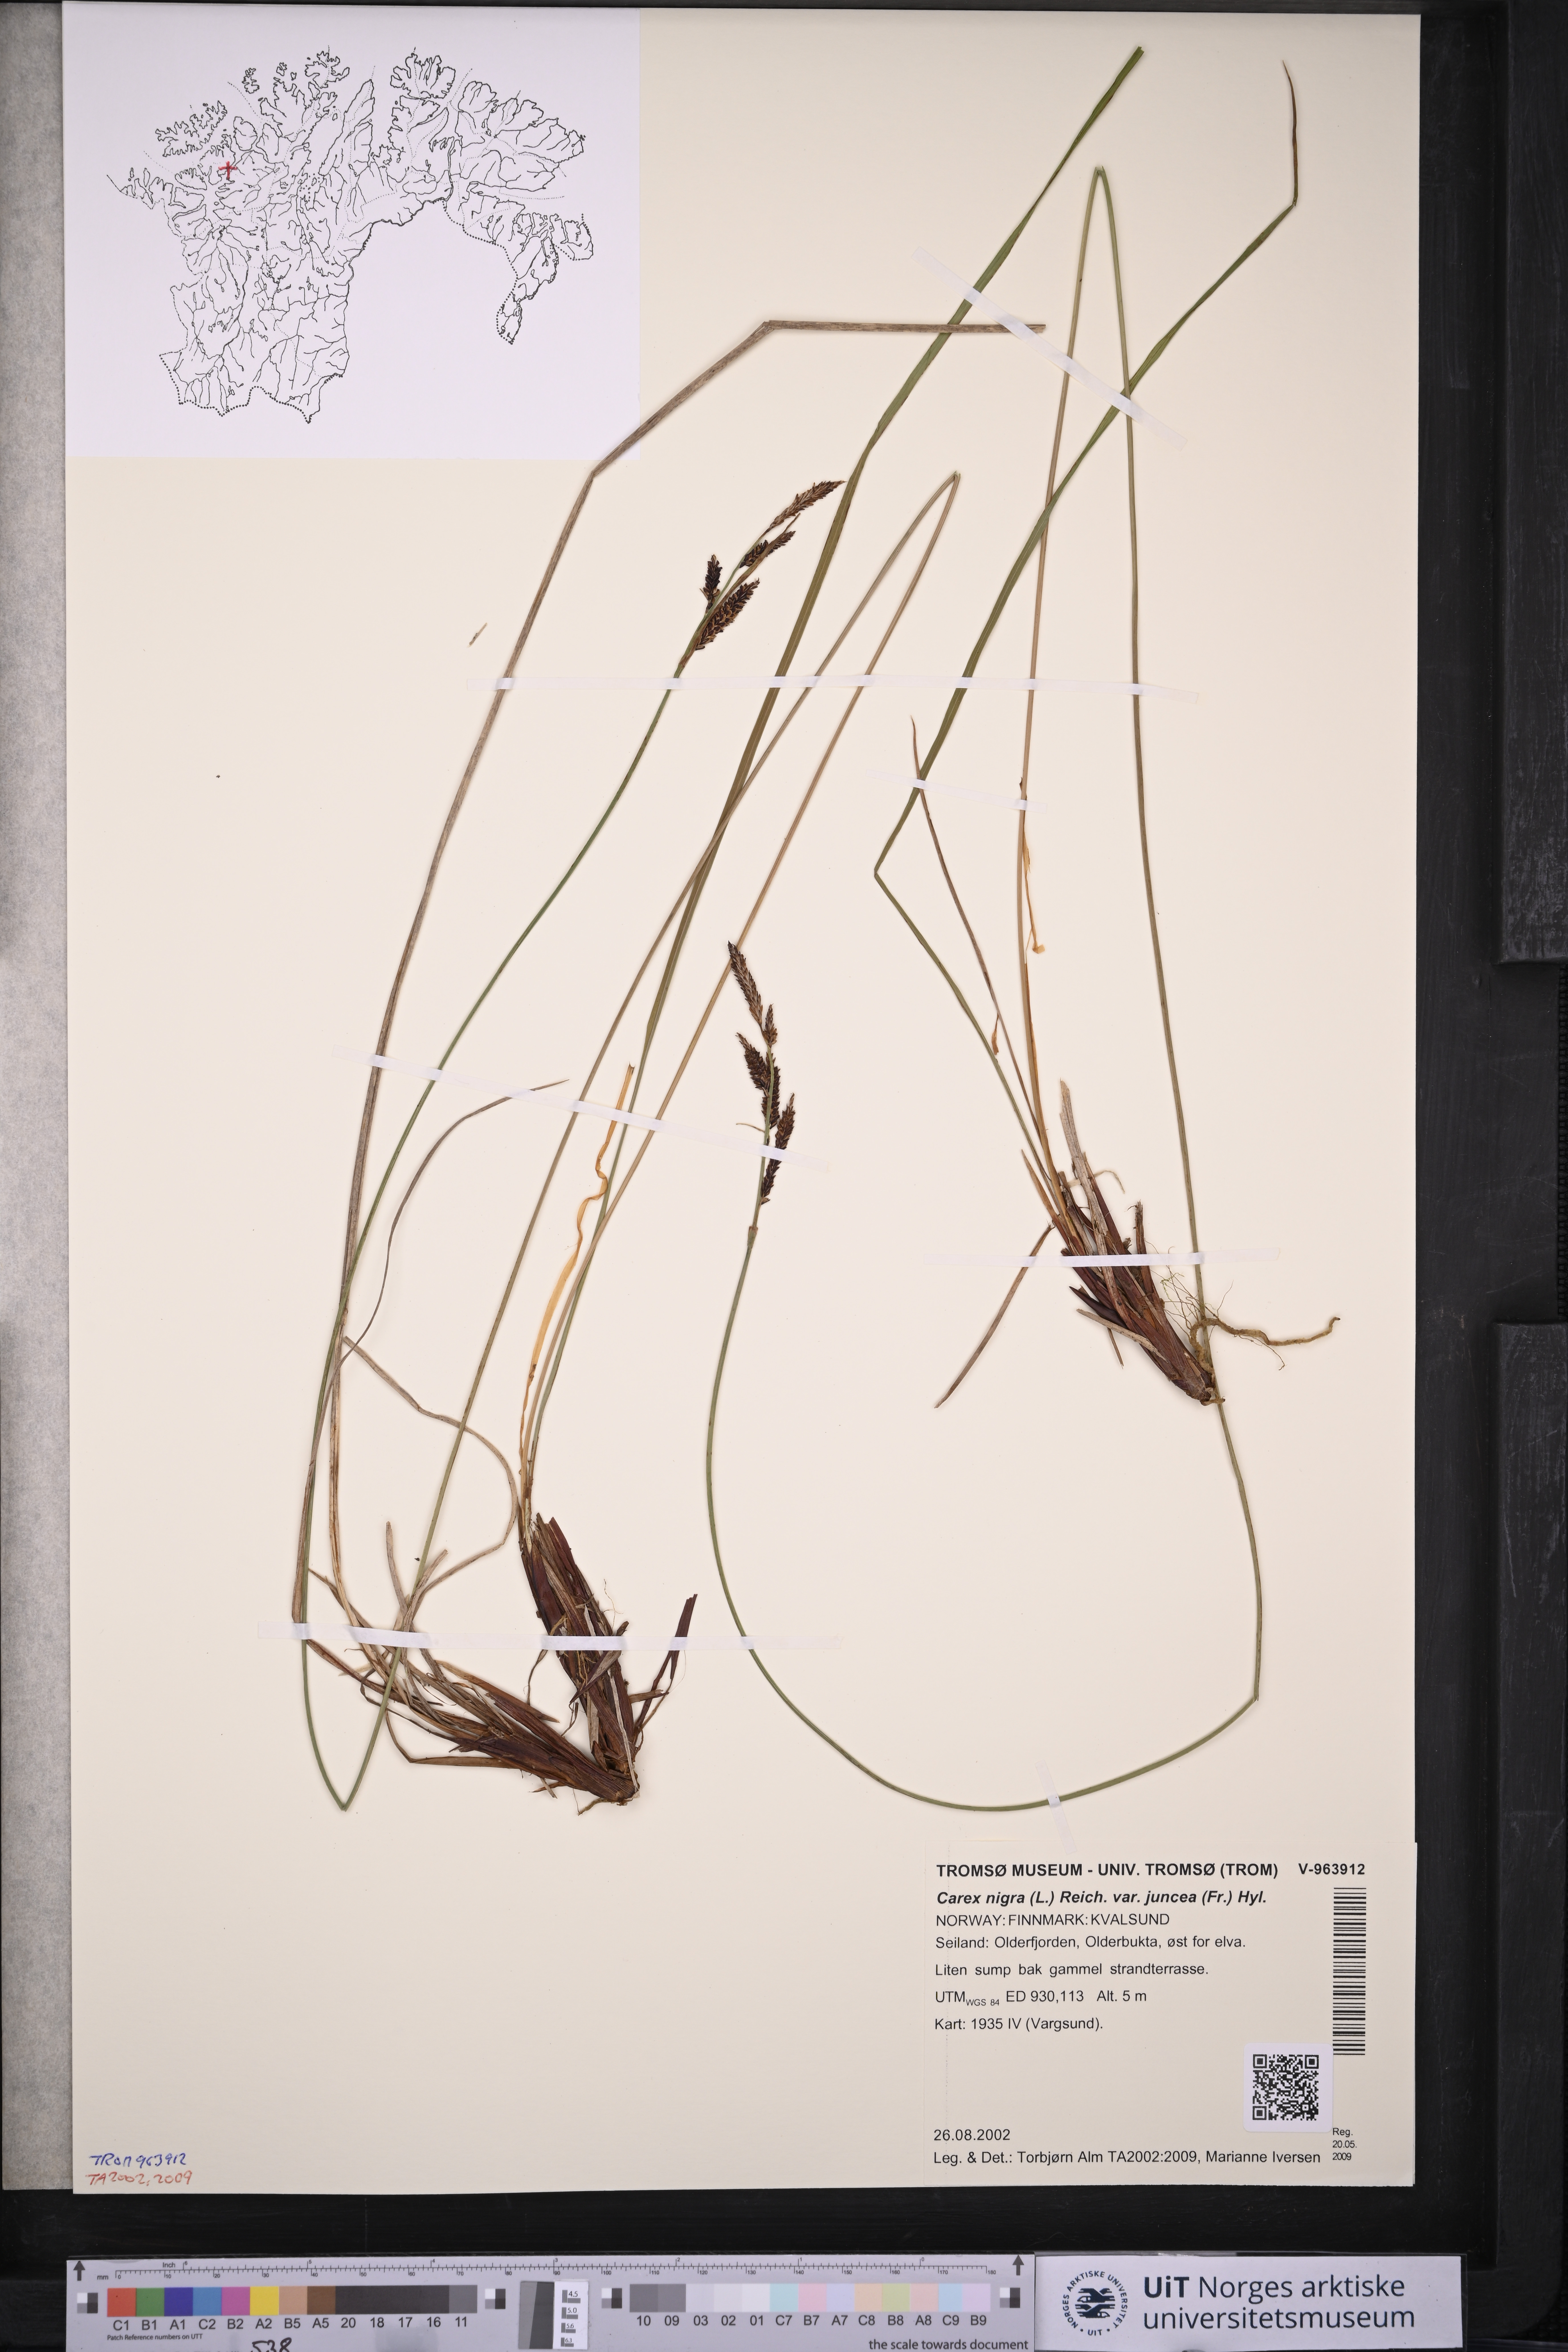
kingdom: Plantae
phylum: Tracheophyta
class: Liliopsida
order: Poales
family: Cyperaceae
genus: Carex
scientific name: Carex nigra
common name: Common sedge
